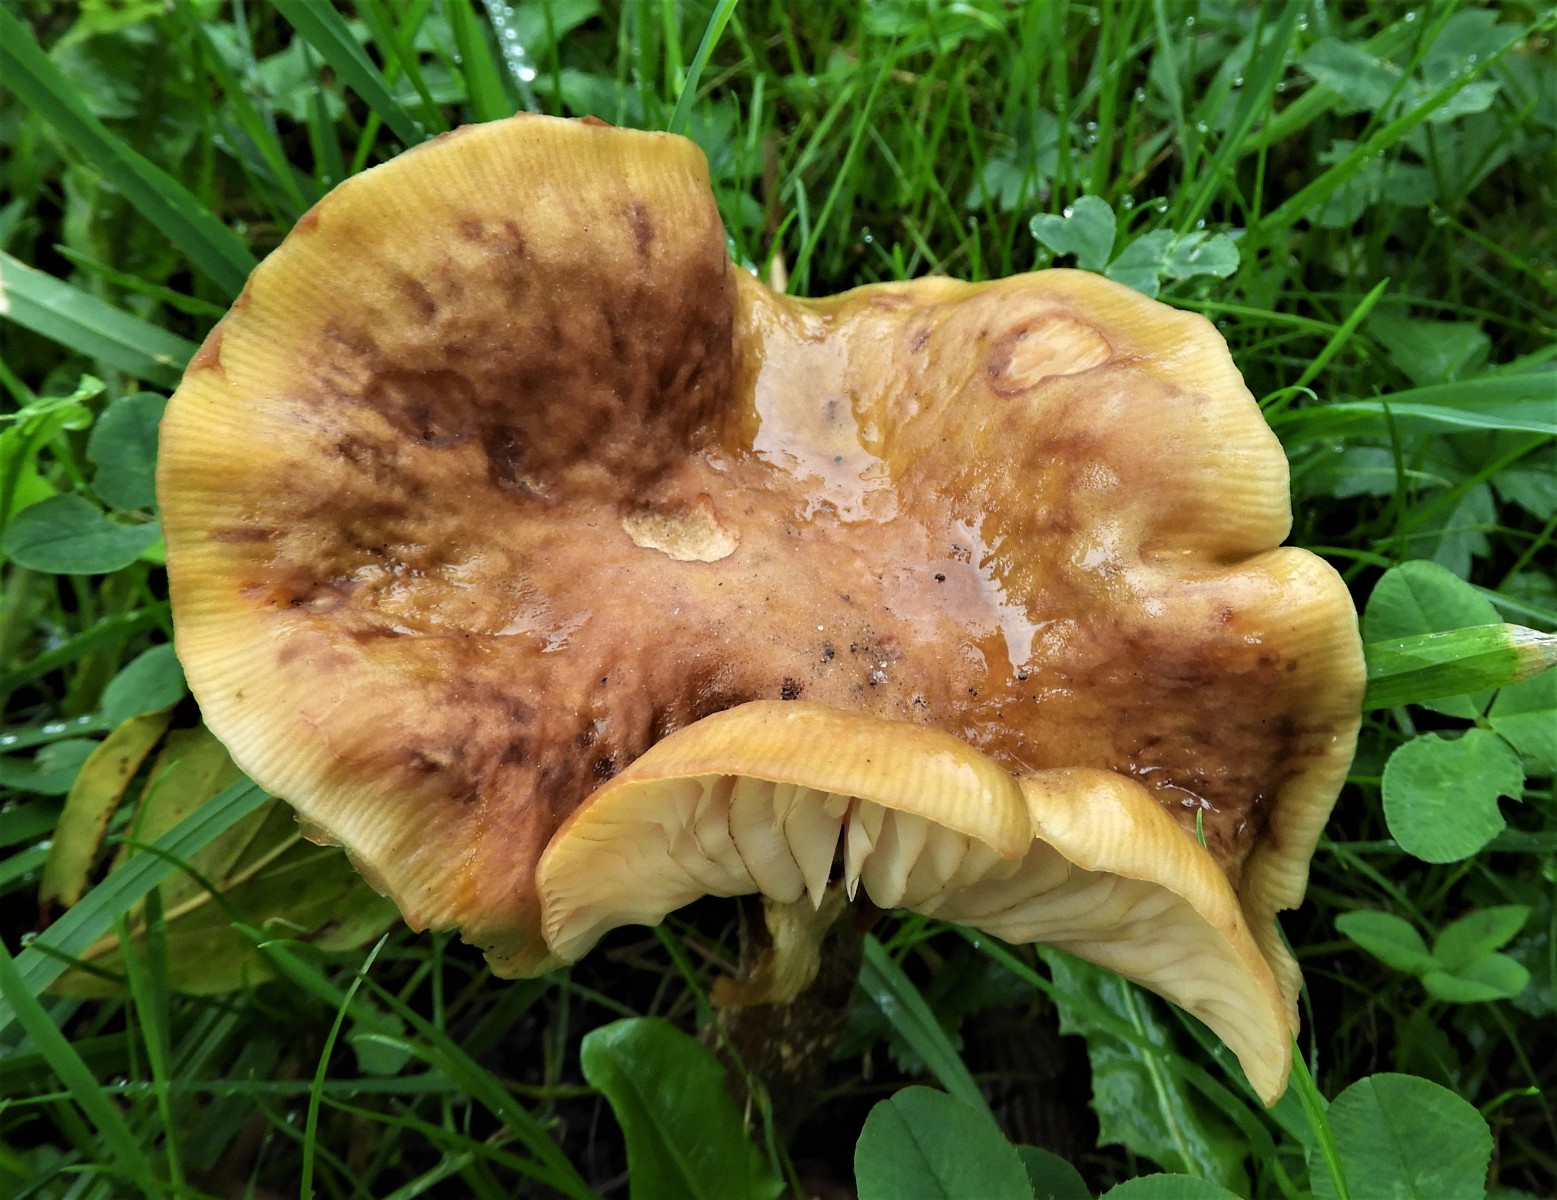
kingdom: Fungi
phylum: Basidiomycota
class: Agaricomycetes
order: Agaricales
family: Physalacriaceae
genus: Armillaria
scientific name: Armillaria mellea
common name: ægte honningsvamp
